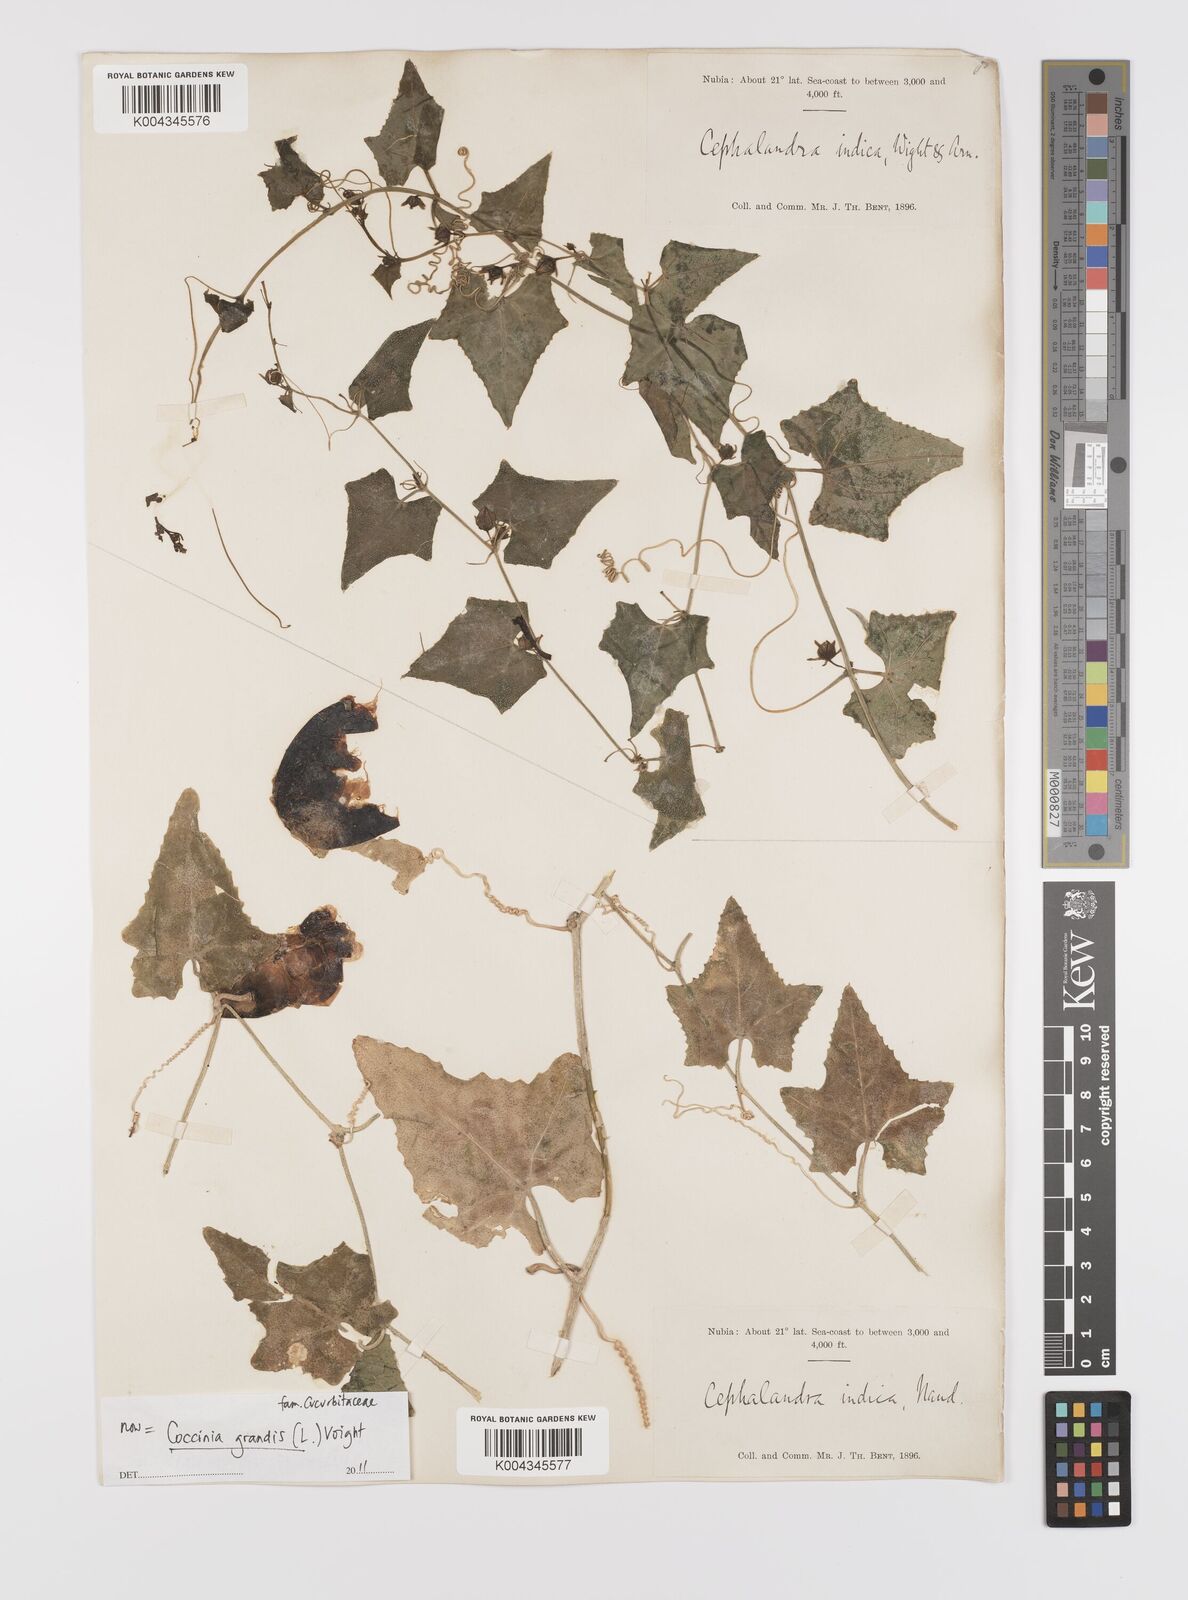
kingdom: Plantae
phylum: Tracheophyta
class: Magnoliopsida
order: Cucurbitales
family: Cucurbitaceae
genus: Coccinia
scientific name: Coccinia grandis
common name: Ivy gourd
